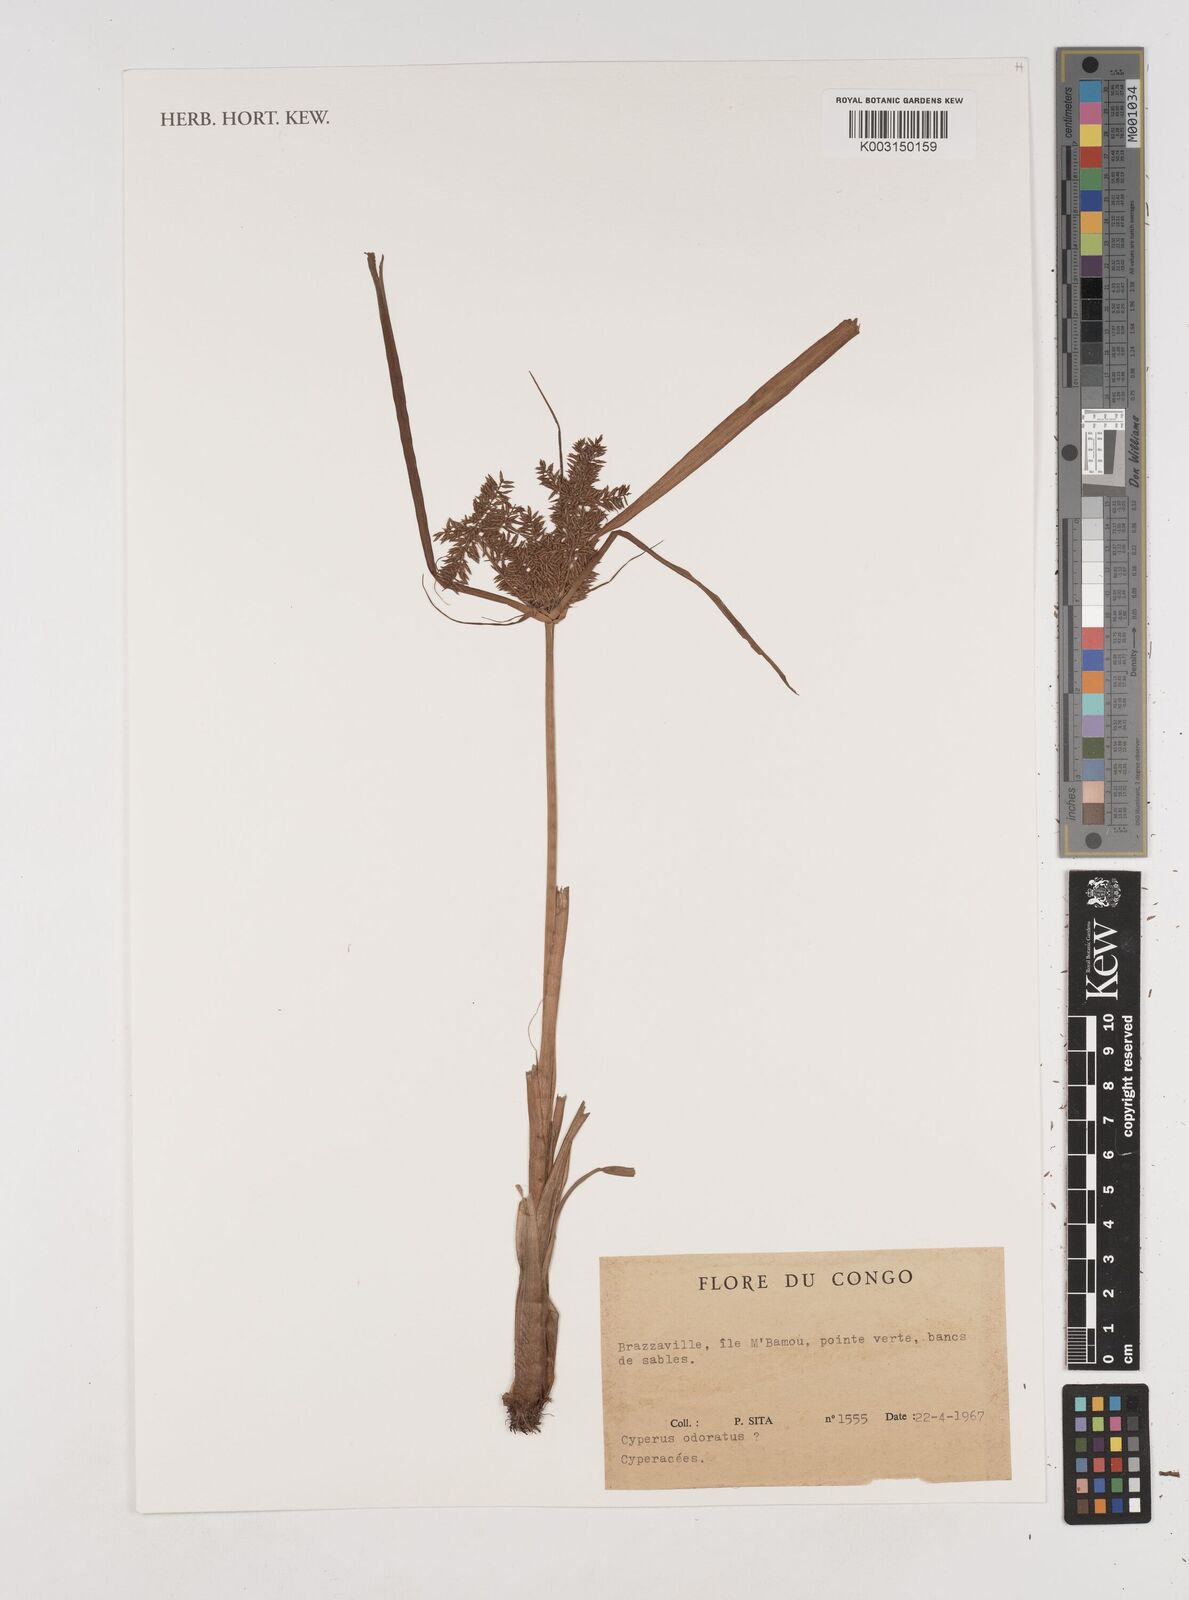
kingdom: Plantae
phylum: Tracheophyta
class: Liliopsida
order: Poales
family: Cyperaceae
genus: Cyperus
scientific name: Cyperus exaltatus
